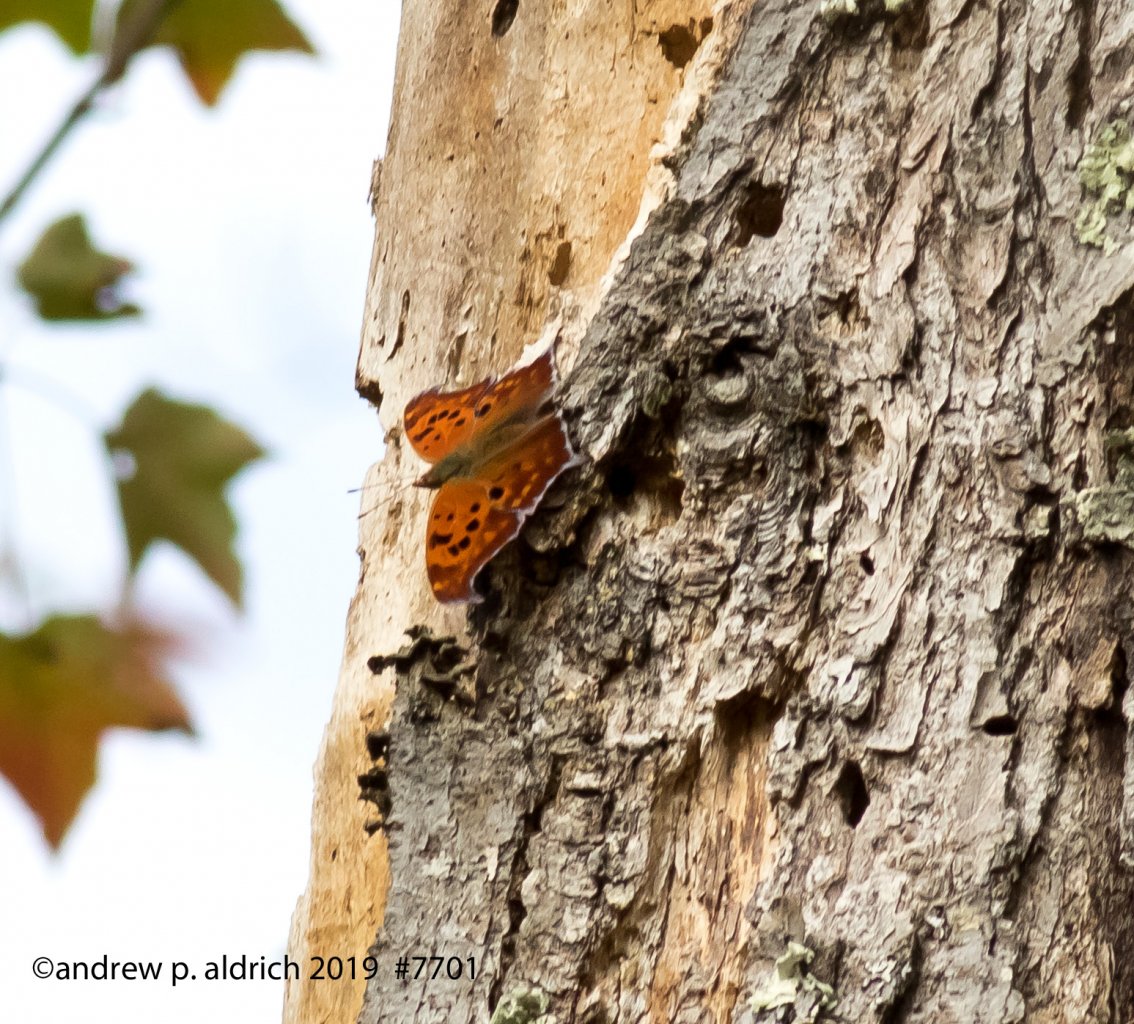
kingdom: Animalia
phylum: Arthropoda
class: Insecta
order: Lepidoptera
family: Nymphalidae
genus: Polygonia
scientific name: Polygonia interrogationis
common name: Question Mark
